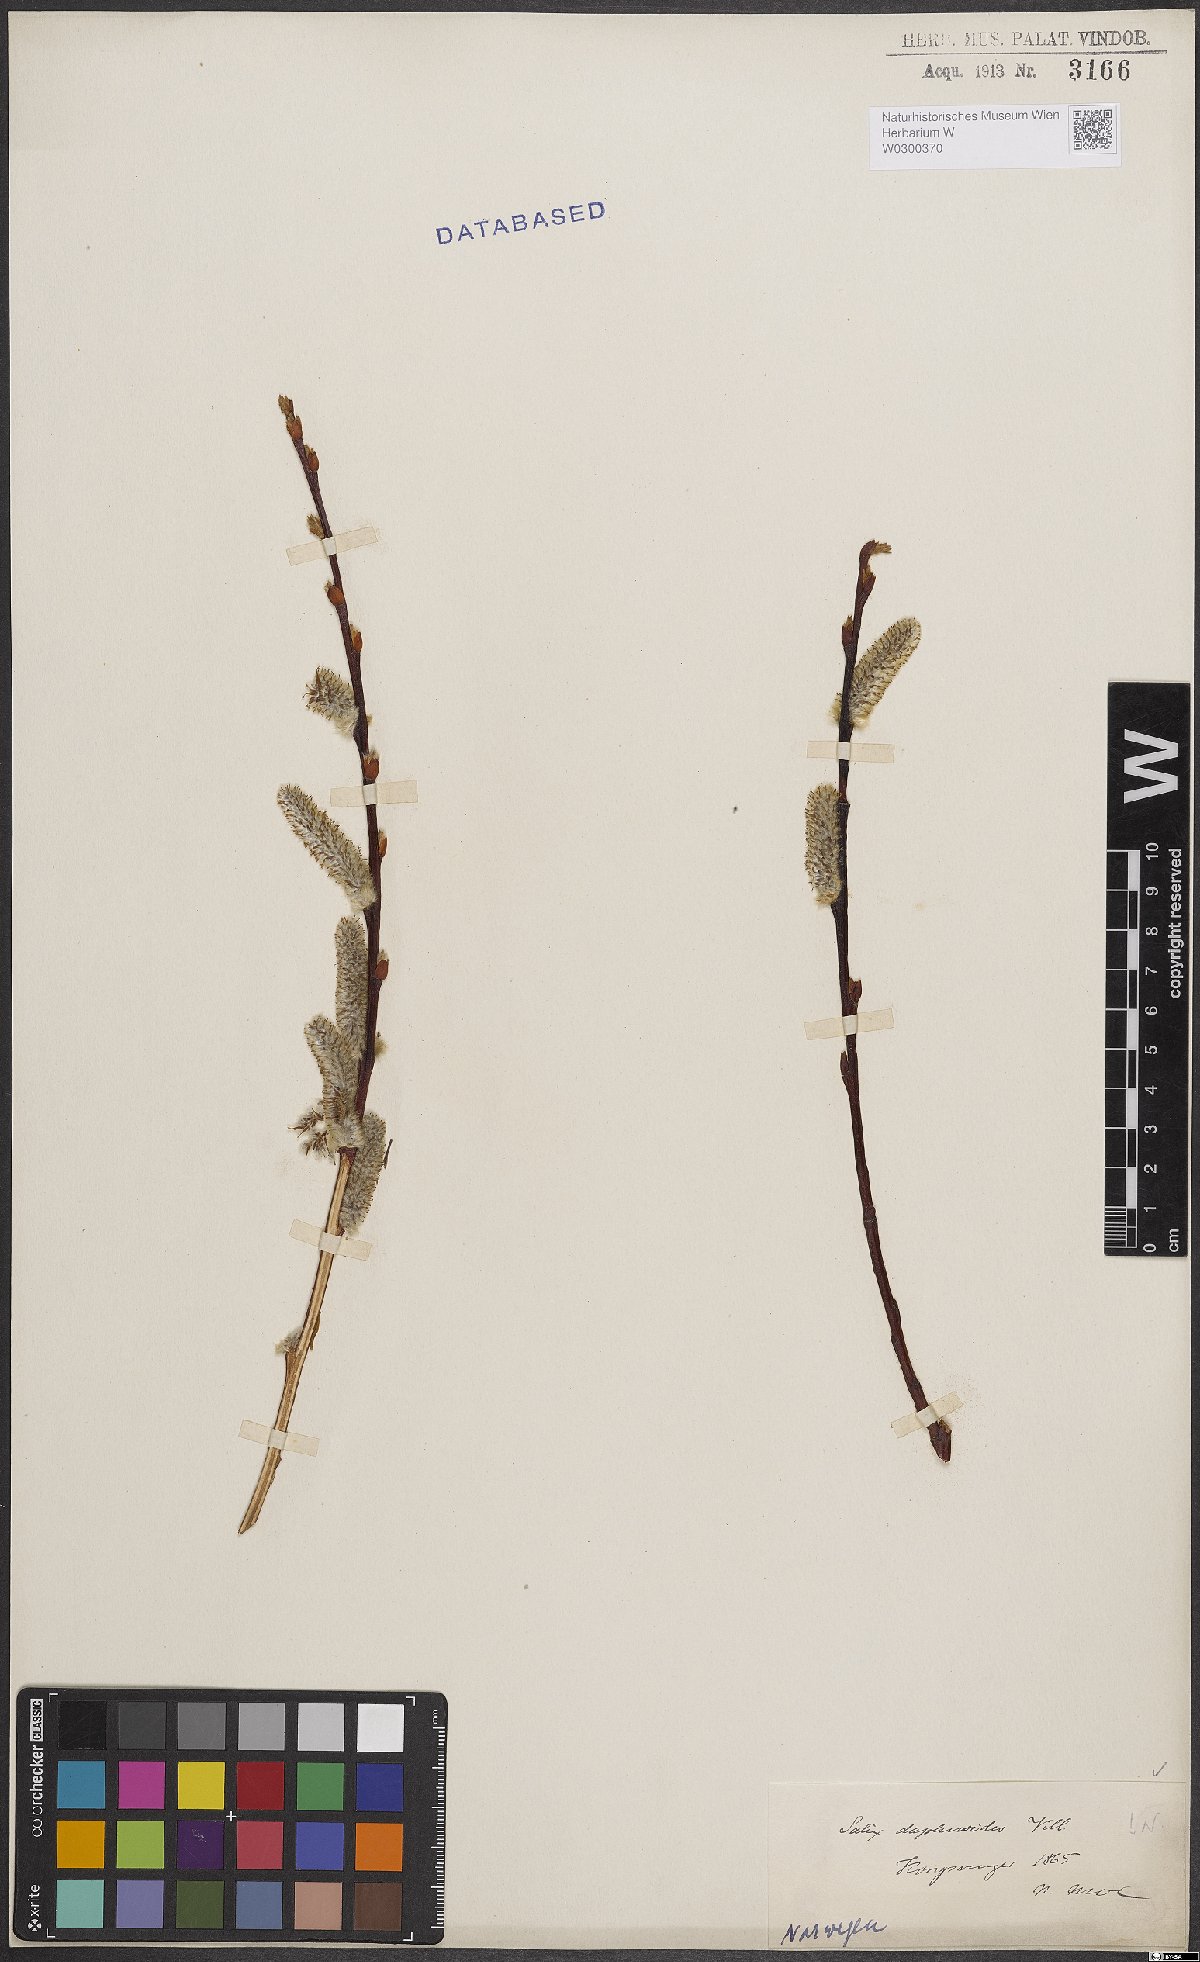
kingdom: Plantae
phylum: Tracheophyta
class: Magnoliopsida
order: Malpighiales
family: Salicaceae
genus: Salix
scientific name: Salix daphnoides
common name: European violet-willow
